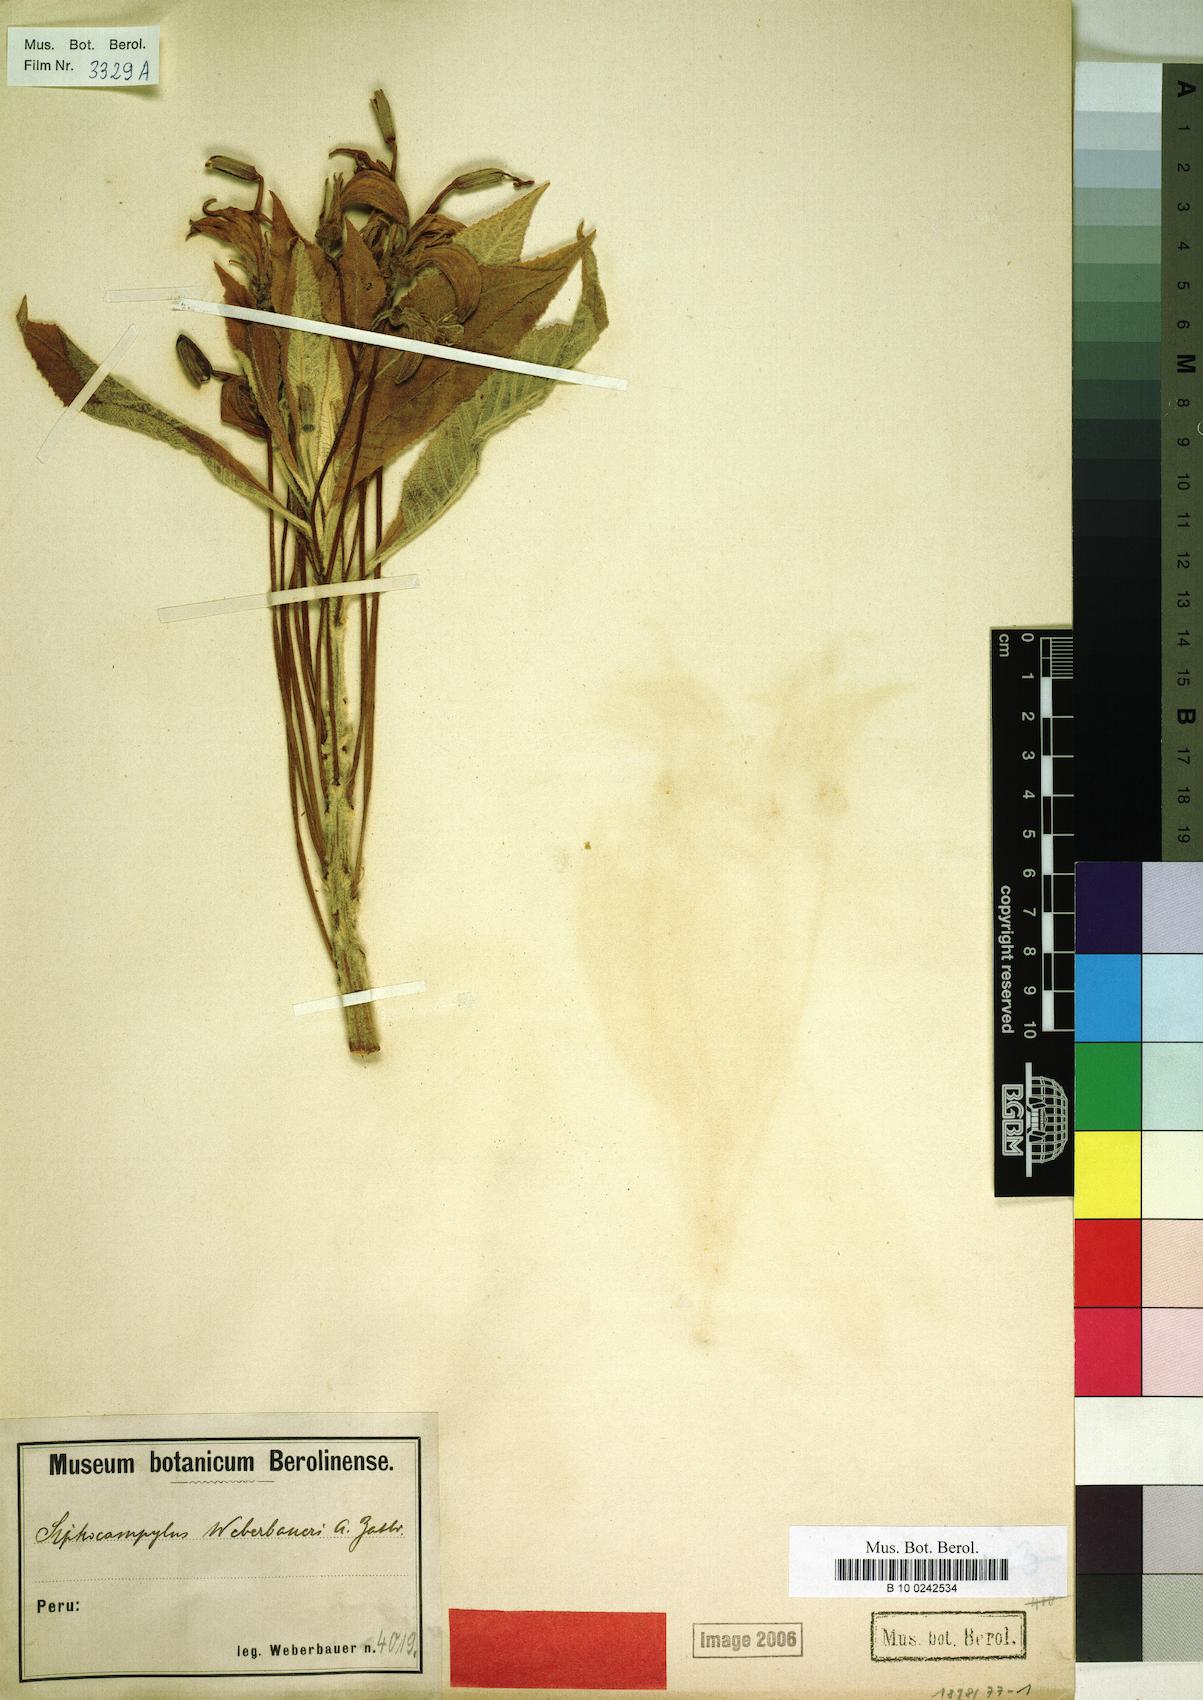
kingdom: Plantae
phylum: Tracheophyta
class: Magnoliopsida
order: Asterales
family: Campanulaceae
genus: Siphocampylus
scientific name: Siphocampylus weberbaueri
